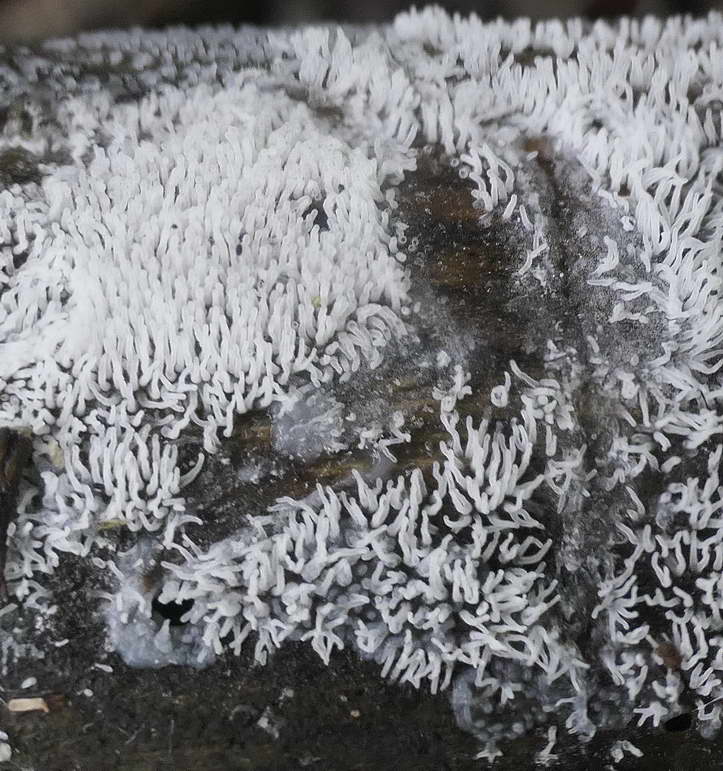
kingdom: Protozoa
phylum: Mycetozoa
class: Protosteliomycetes
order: Ceratiomyxales
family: Ceratiomyxaceae
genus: Ceratiomyxa
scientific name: Ceratiomyxa fruticulosa
